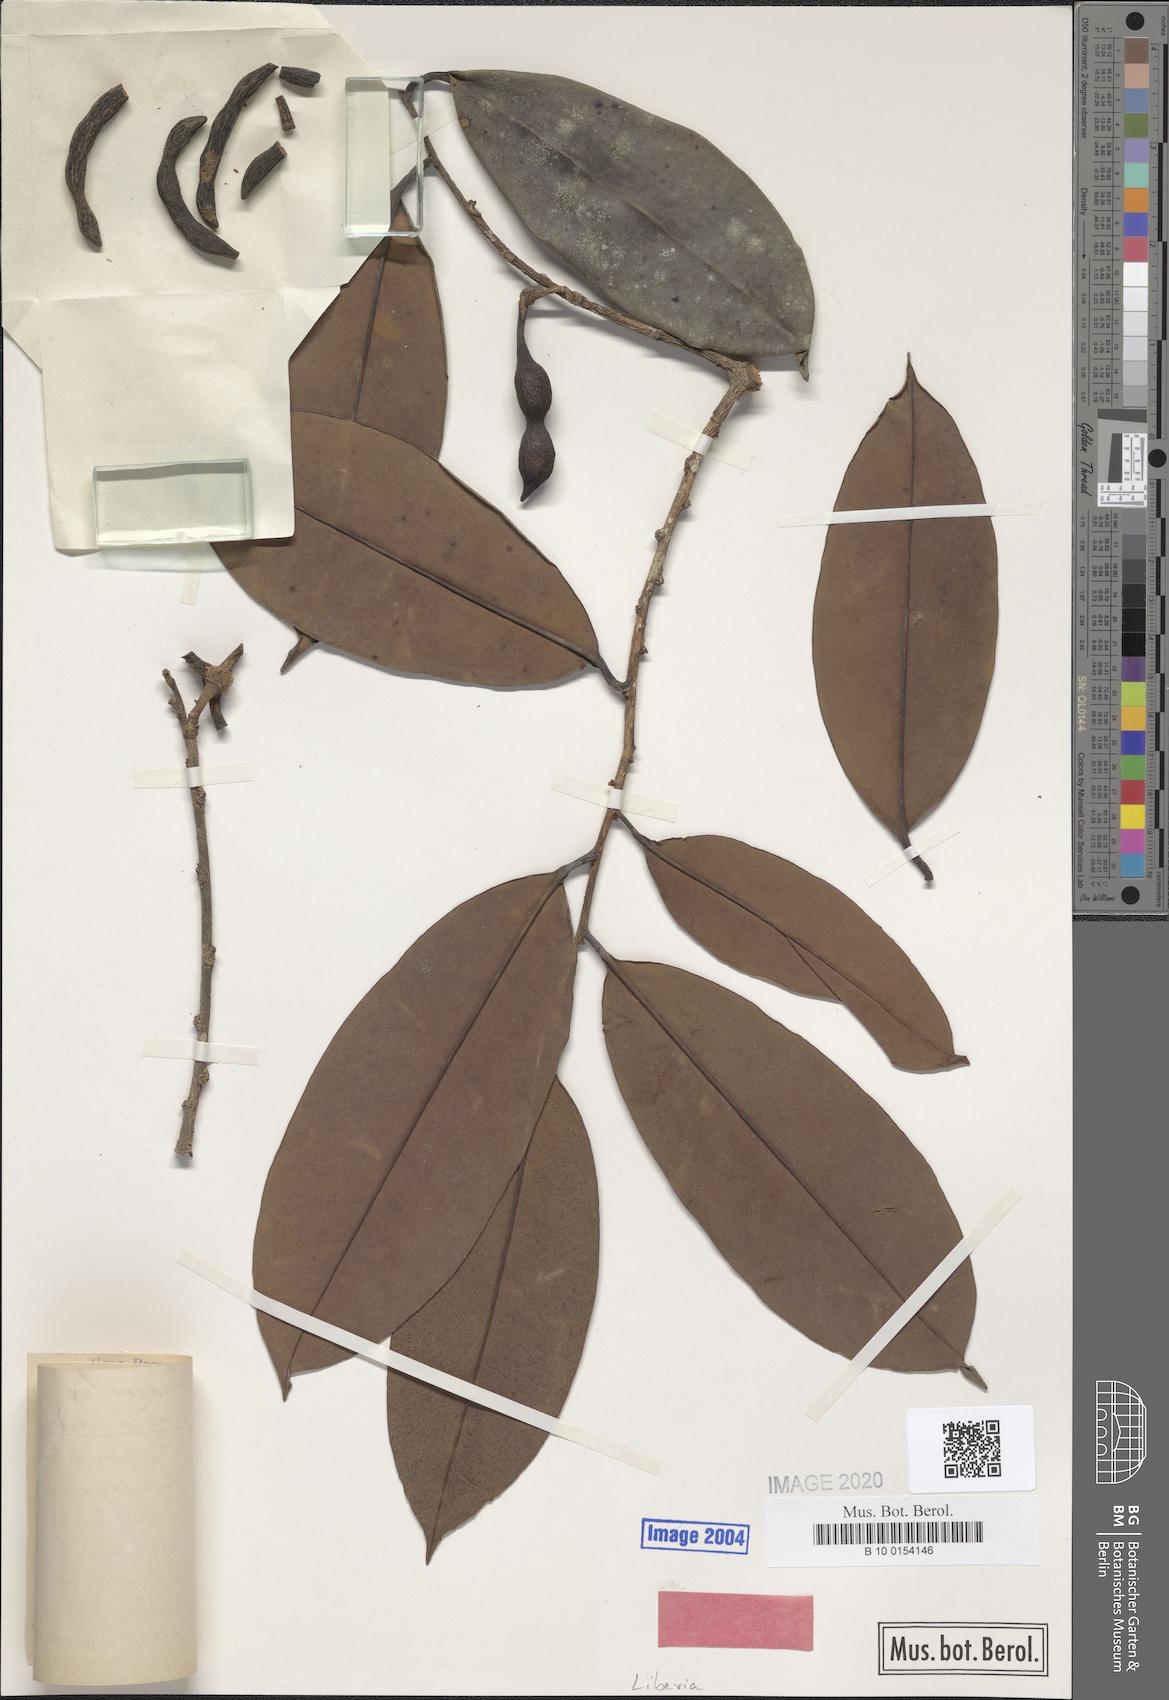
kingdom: Plantae
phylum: Tracheophyta
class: Magnoliopsida
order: Magnoliales
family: Annonaceae
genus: Xylopia
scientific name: Xylopia rubescens
